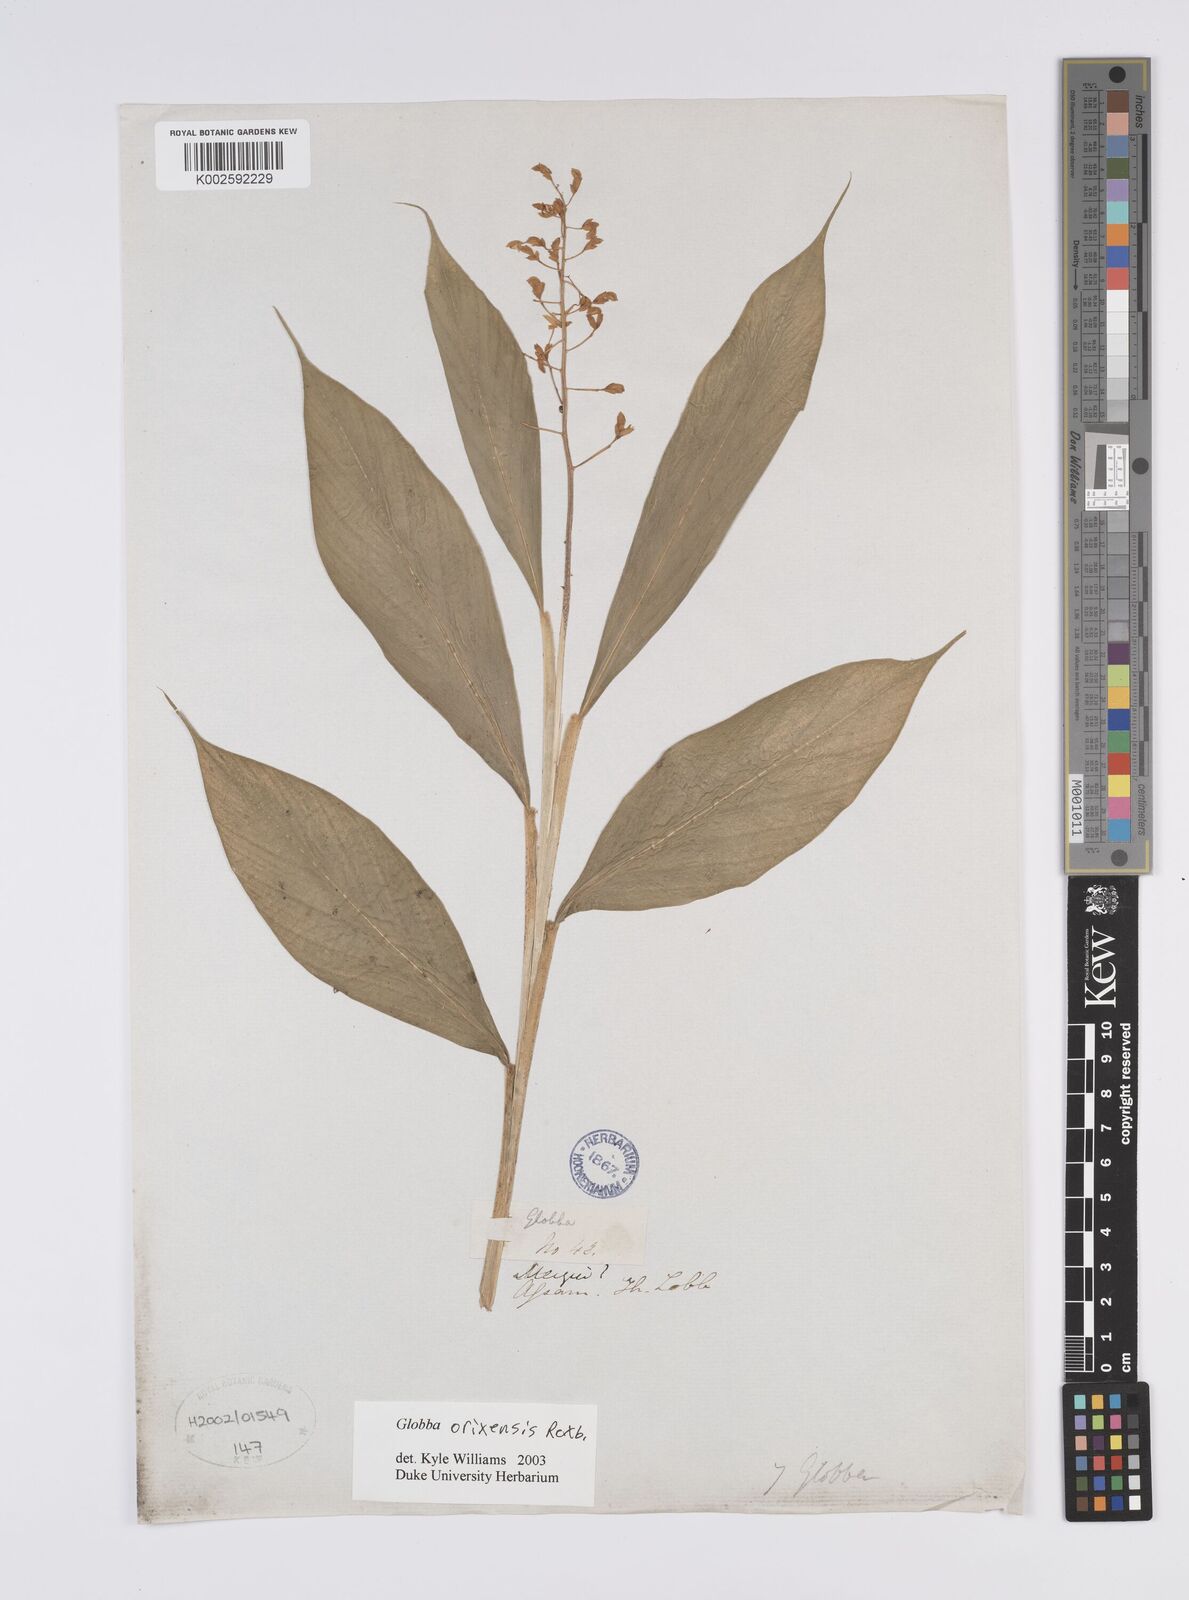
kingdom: Plantae
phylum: Tracheophyta
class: Liliopsida
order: Zingiberales
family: Zingiberaceae
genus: Globba
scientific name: Globba orixensis
